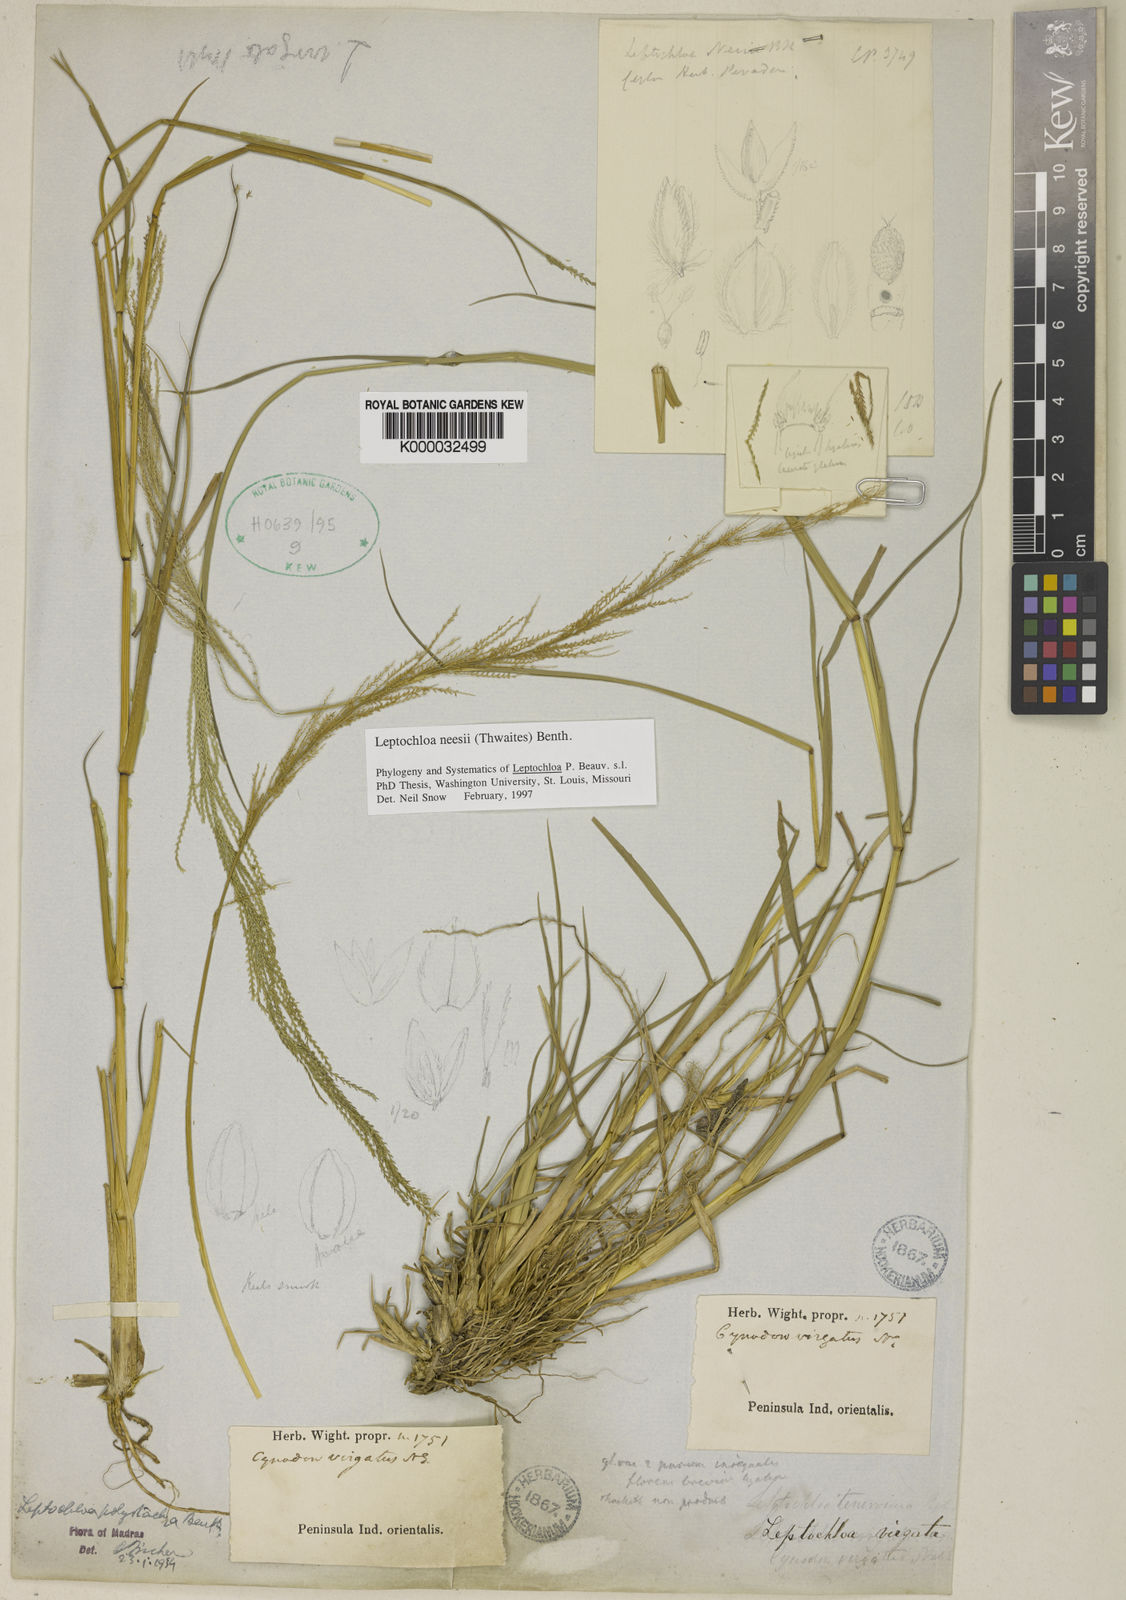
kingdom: Plantae
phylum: Tracheophyta
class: Liliopsida
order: Poales
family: Poaceae
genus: Dinebra
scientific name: Dinebra polystachyos
